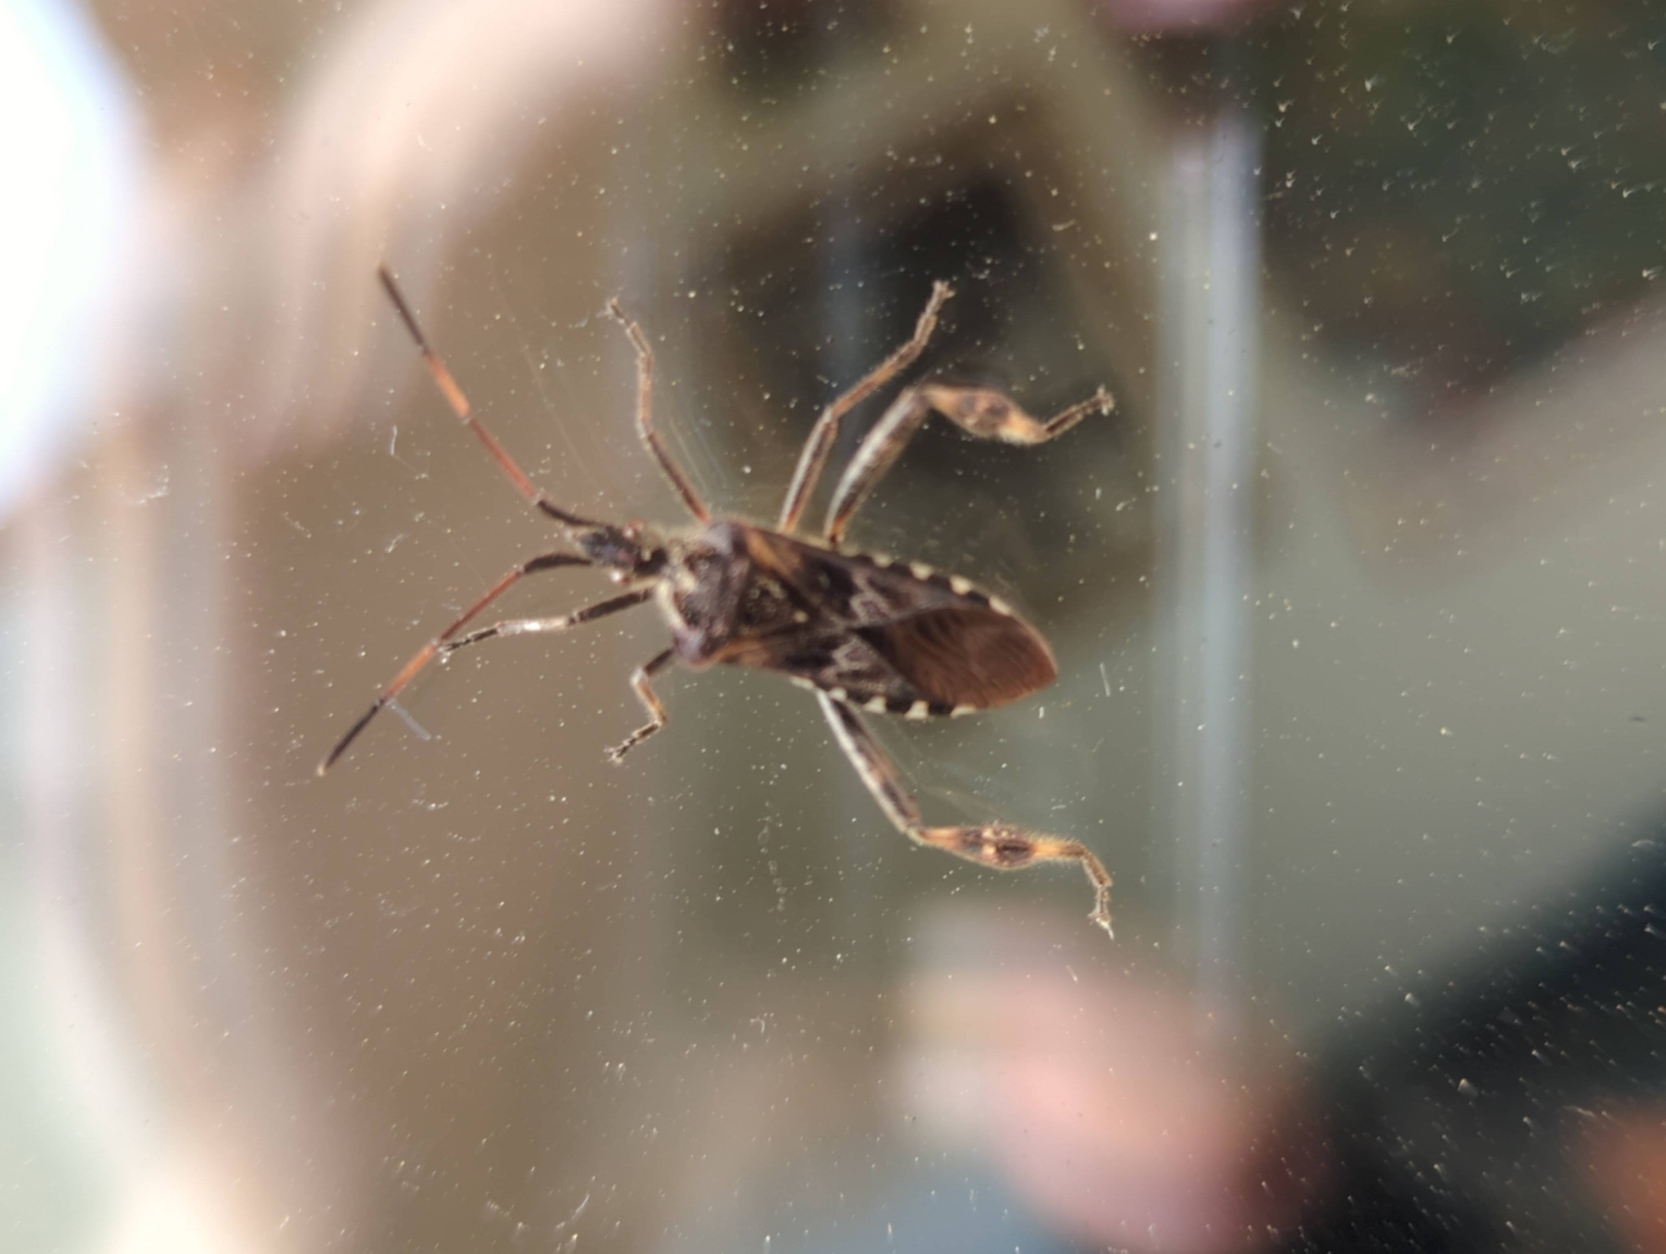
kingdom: Animalia
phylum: Arthropoda
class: Insecta
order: Hemiptera
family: Coreidae
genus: Leptoglossus
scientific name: Leptoglossus occidentalis
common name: Amerikansk fyrretæge
